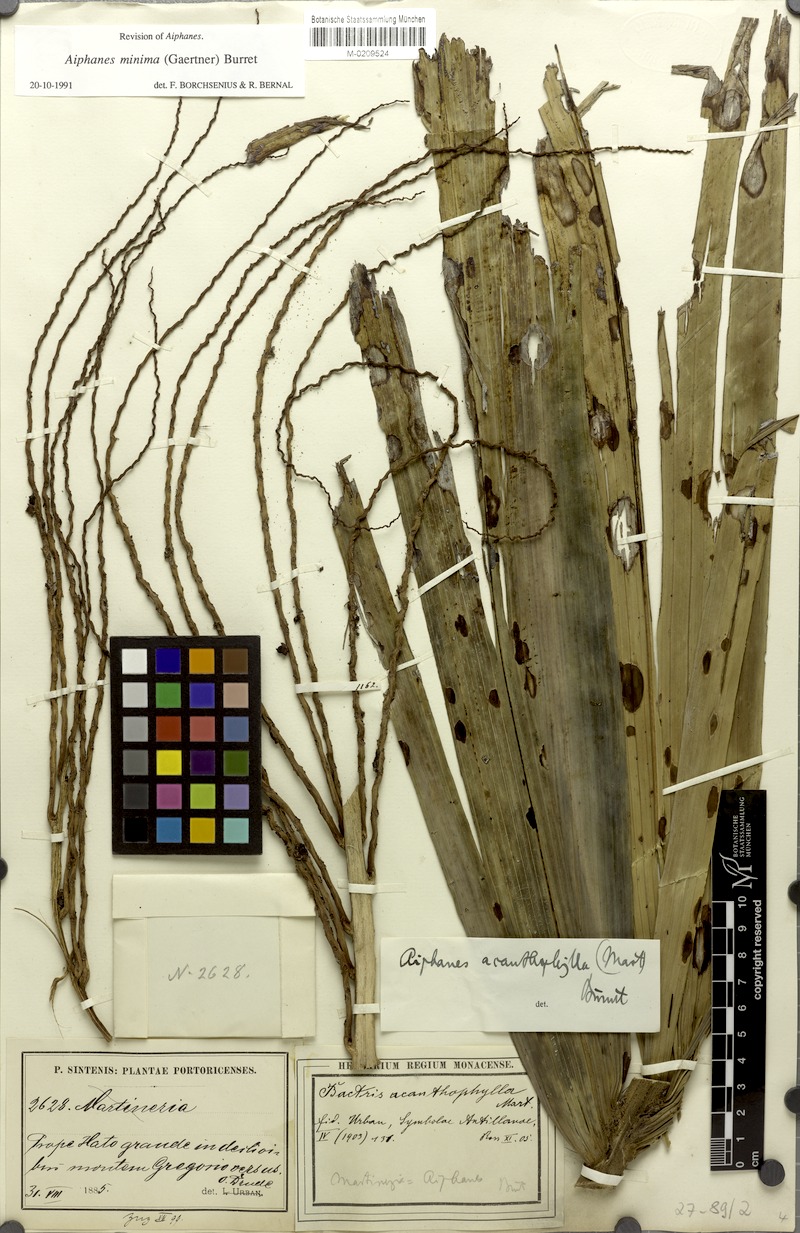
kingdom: Plantae
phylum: Tracheophyta
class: Liliopsida
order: Arecales
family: Arecaceae
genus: Aiphanes
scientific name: Aiphanes minima
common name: Grigri
